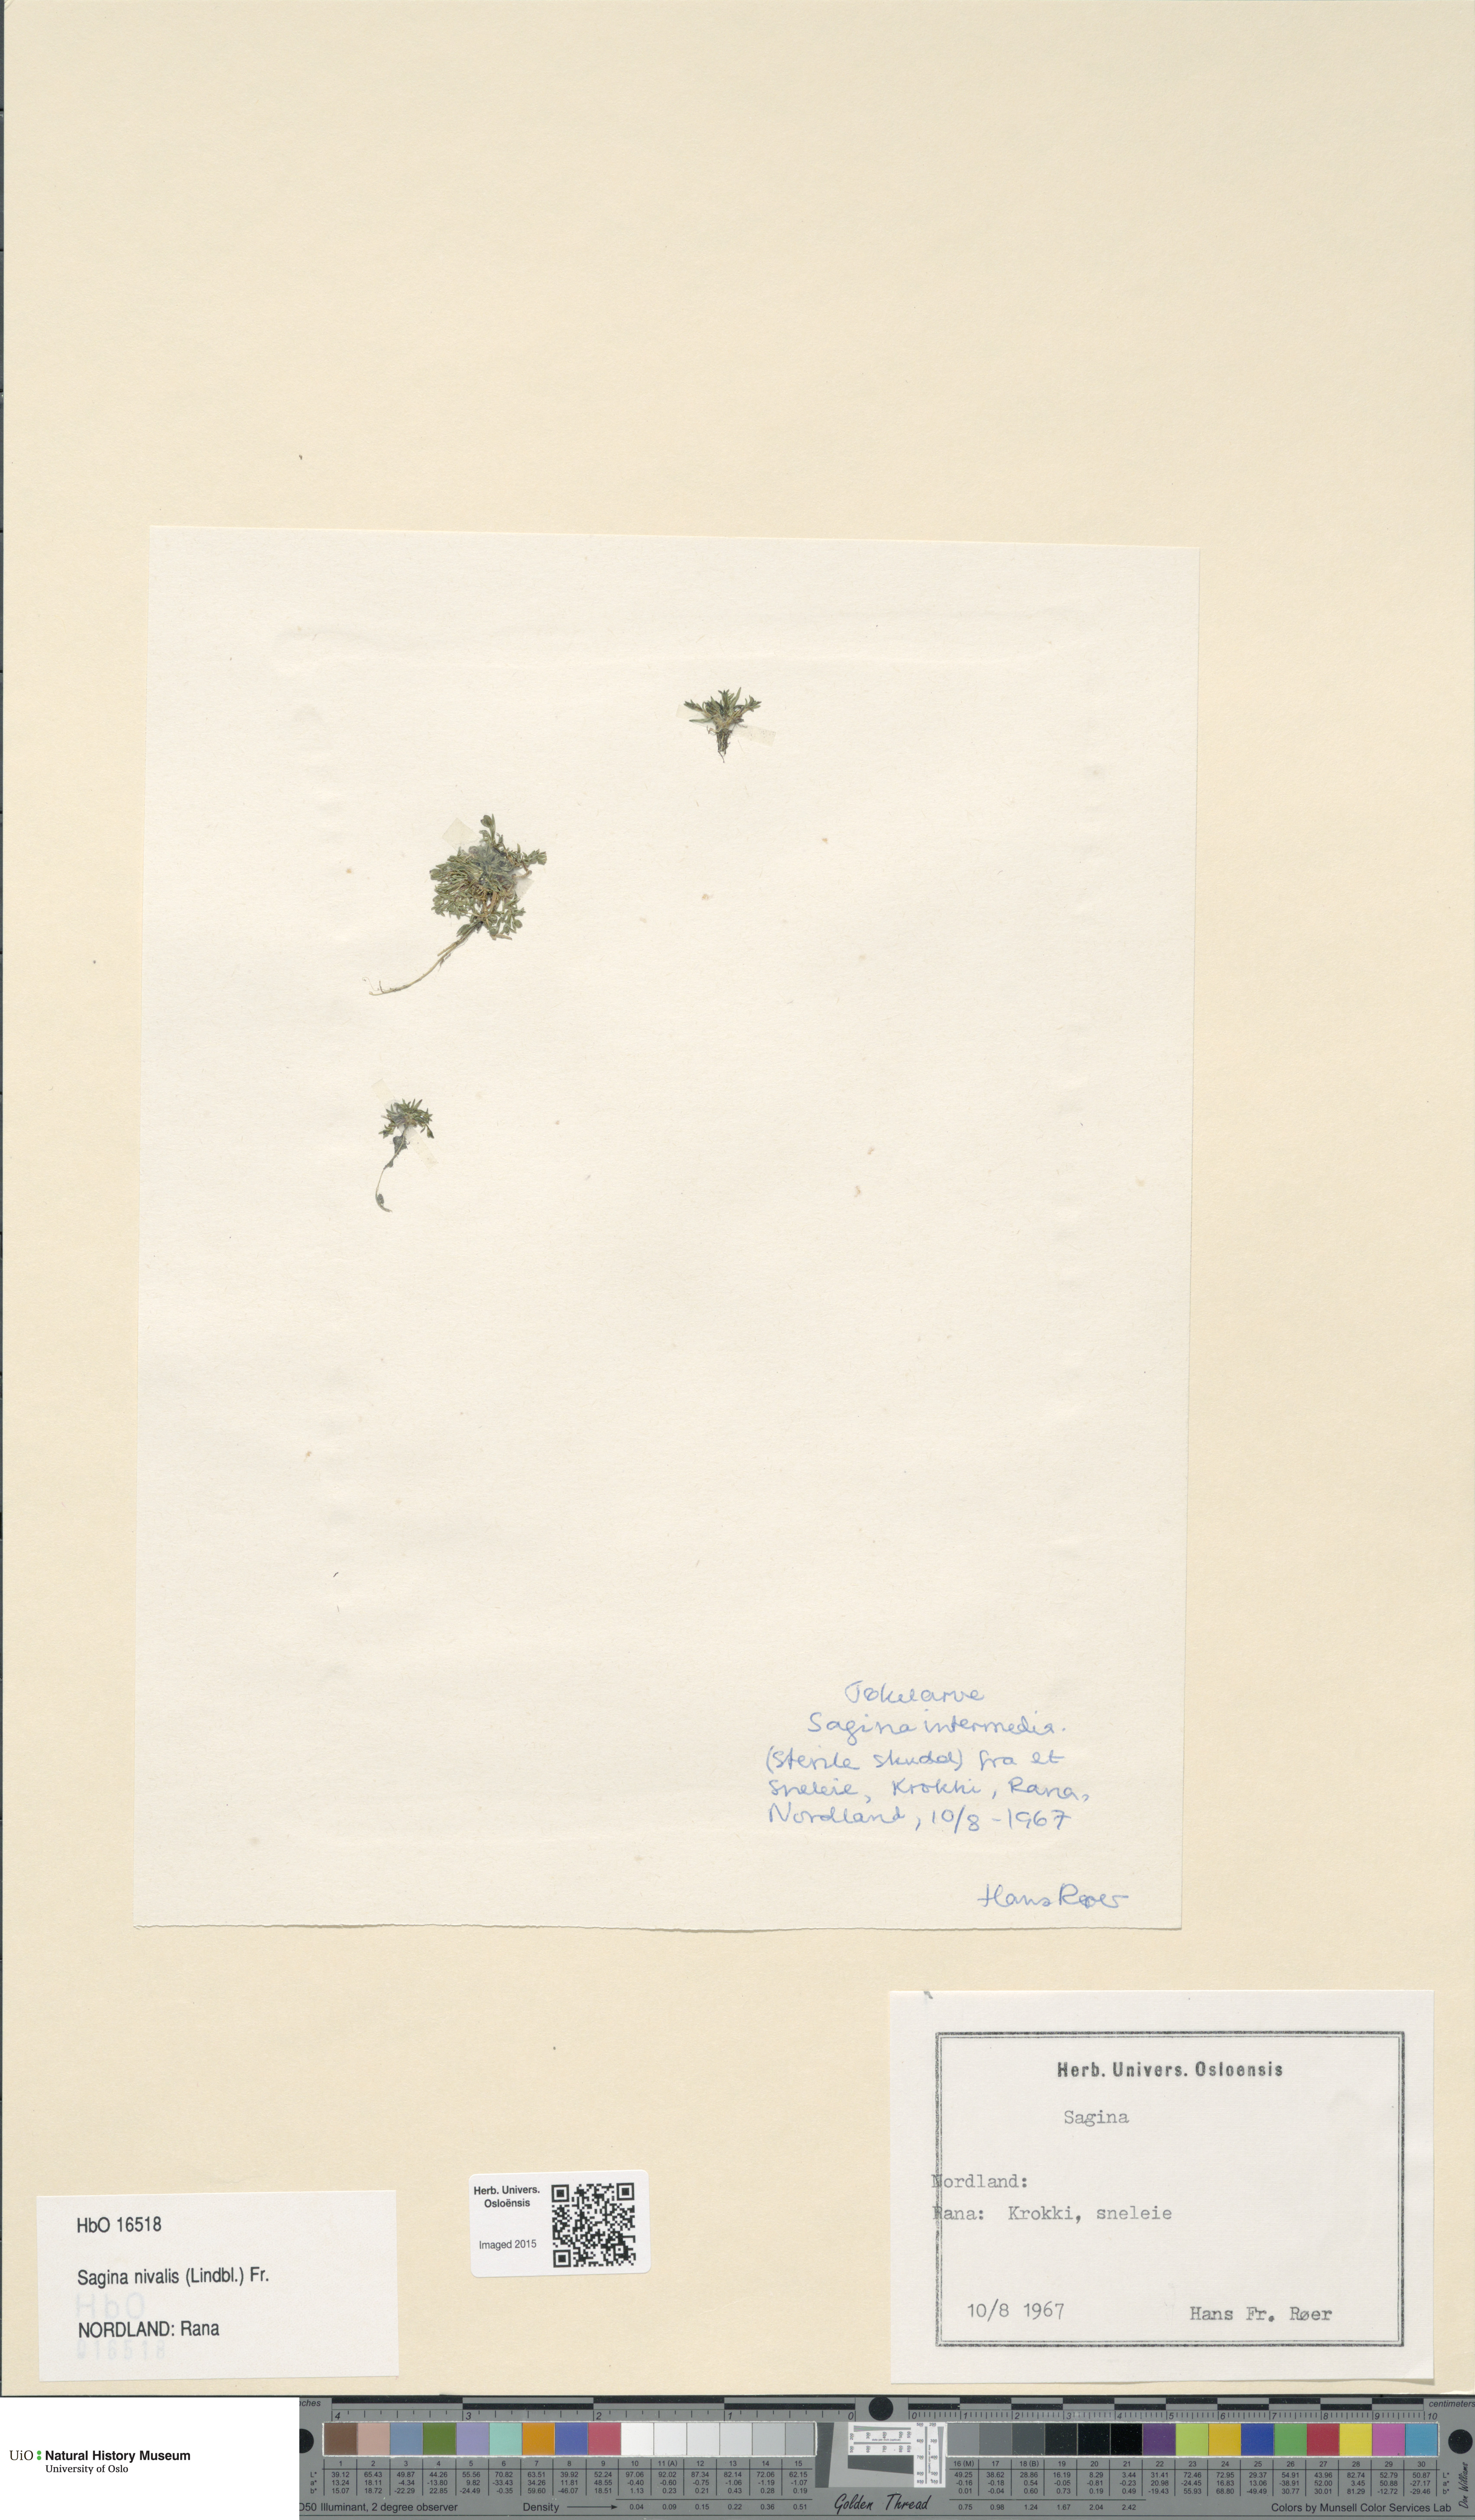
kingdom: Plantae
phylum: Tracheophyta
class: Magnoliopsida
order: Caryophyllales
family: Caryophyllaceae
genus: Sagina
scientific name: Sagina nivalis
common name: Snow pearlwort
